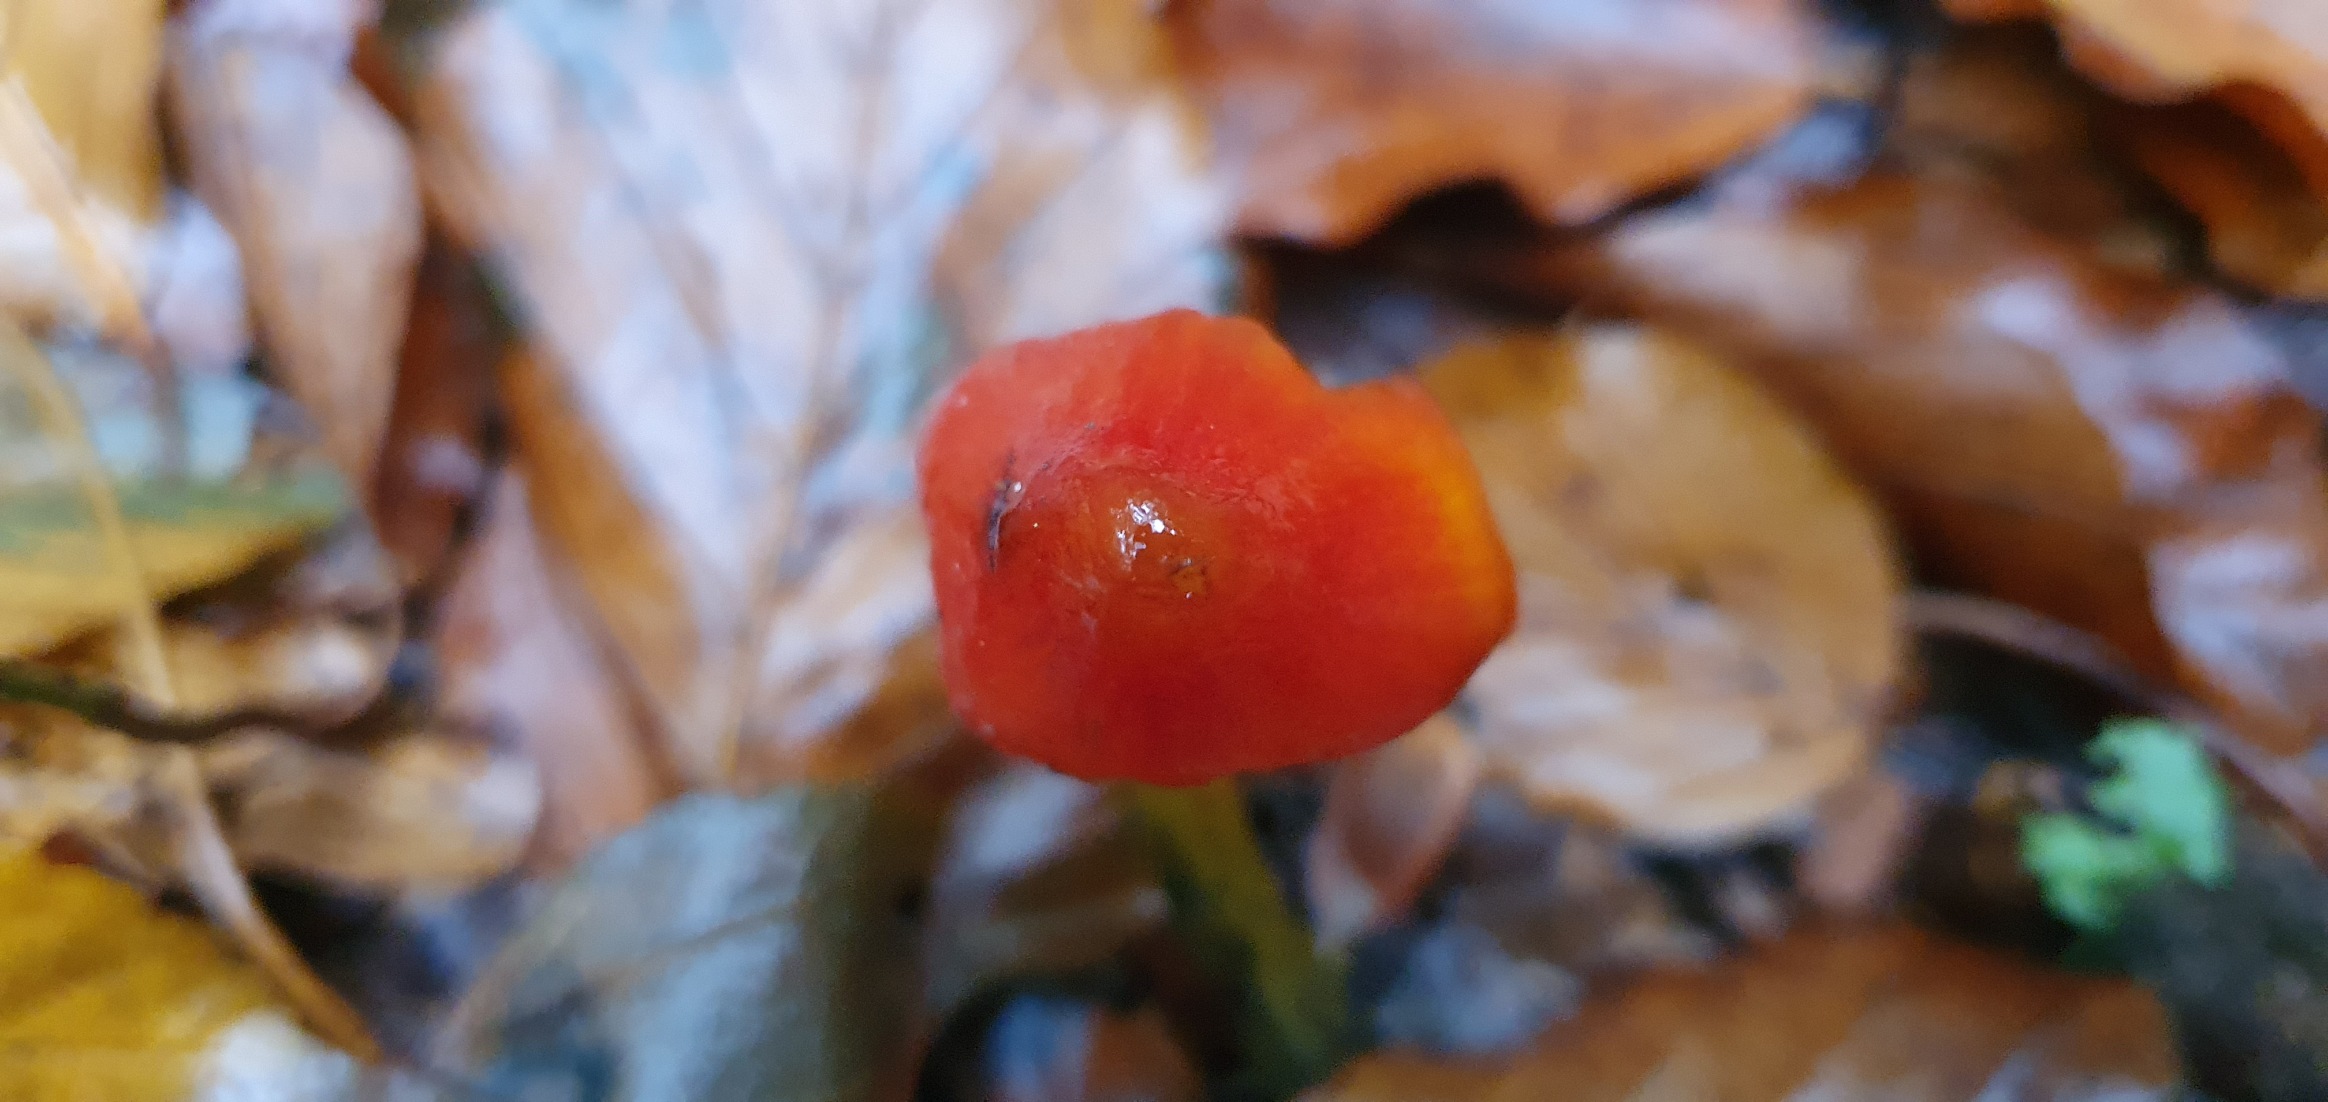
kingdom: Fungi
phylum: Basidiomycota
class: Agaricomycetes
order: Agaricales
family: Hygrophoraceae
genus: Hygrocybe
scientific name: Hygrocybe conica
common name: Kegle-vokshat
